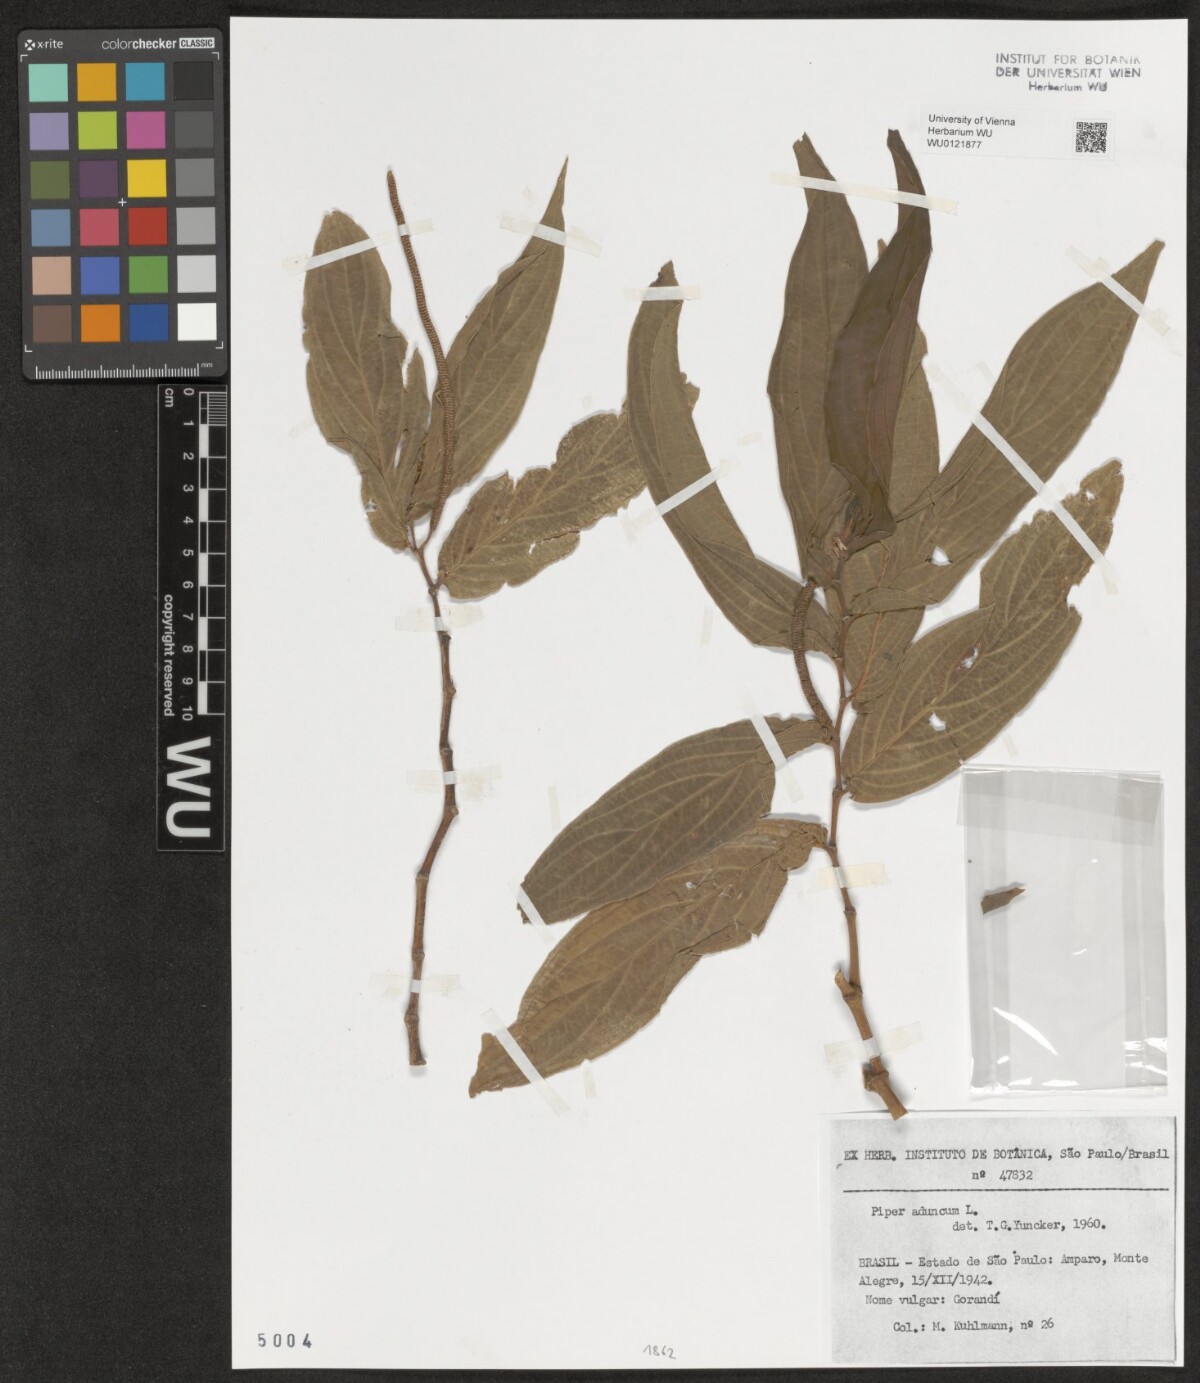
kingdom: Plantae
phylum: Tracheophyta
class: Magnoliopsida
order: Piperales
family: Piperaceae
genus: Piper
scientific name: Piper aduncum
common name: Spiked pepper
